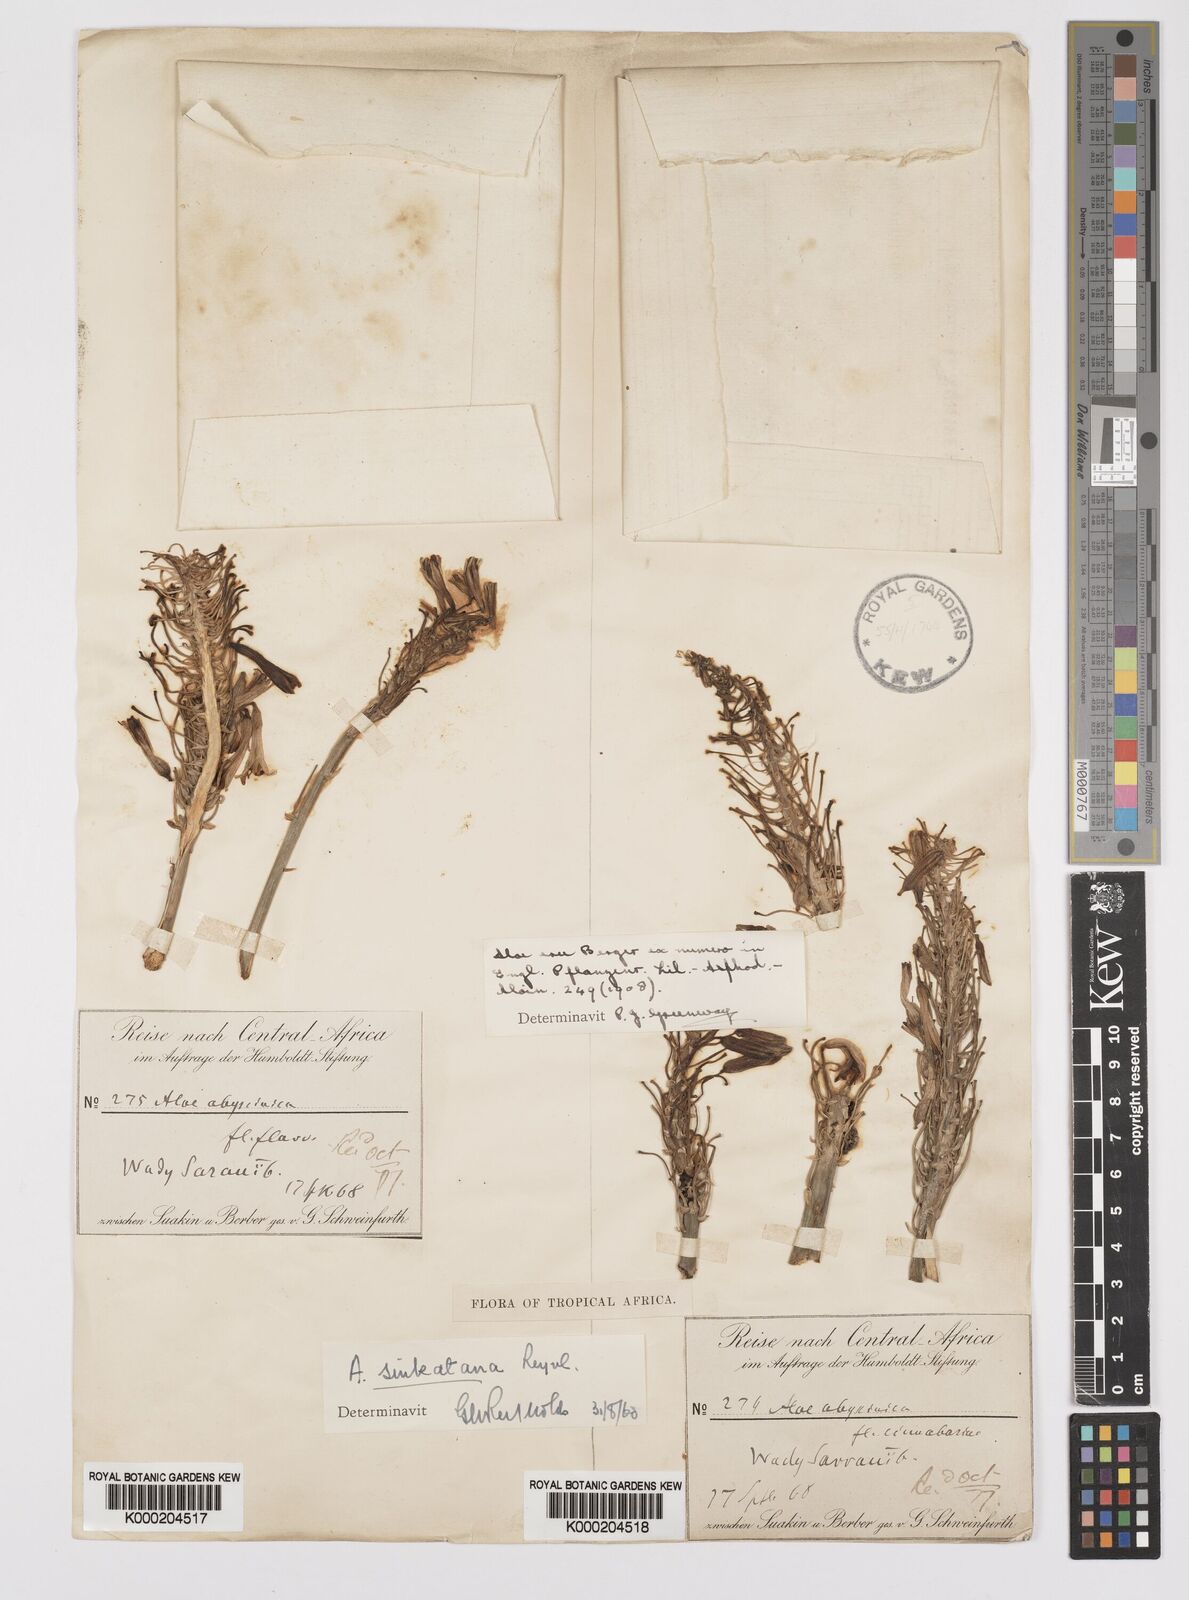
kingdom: Plantae
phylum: Tracheophyta
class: Liliopsida
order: Asparagales
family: Asphodelaceae
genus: Aloe
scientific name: Aloe sinkatana
